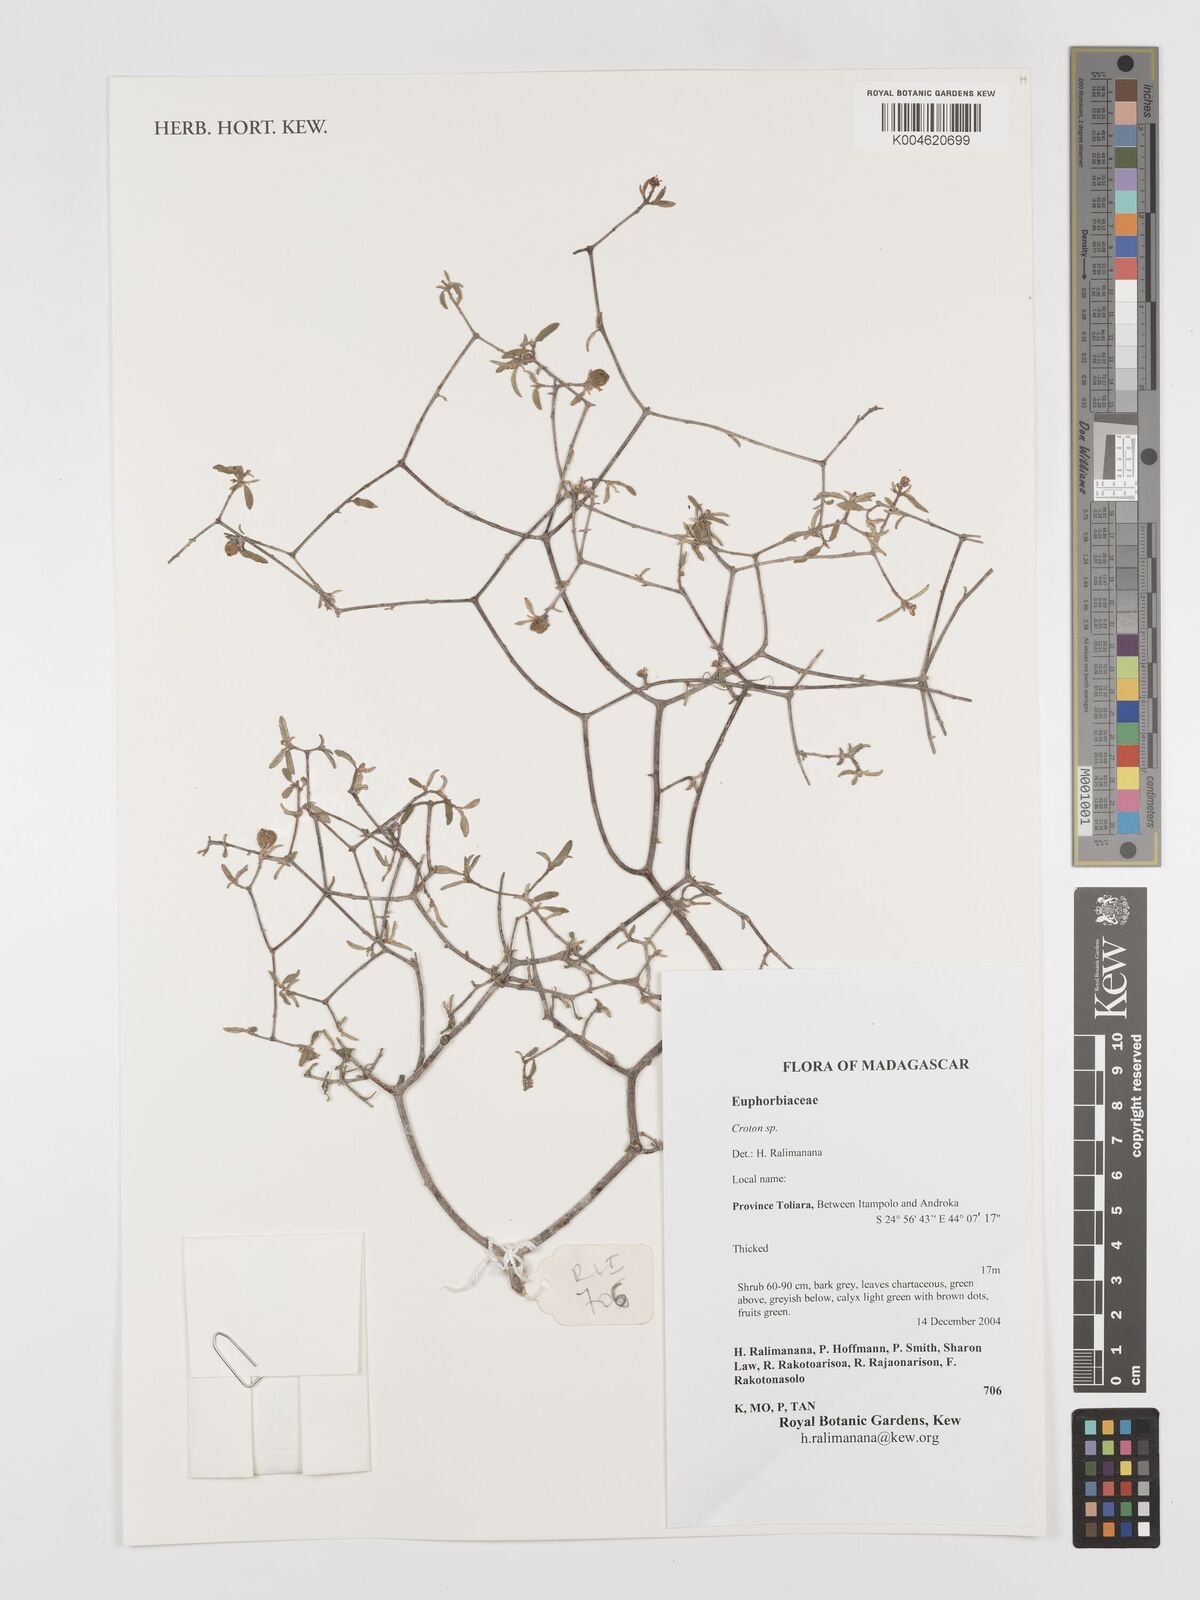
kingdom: Plantae
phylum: Tracheophyta
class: Magnoliopsida
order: Malpighiales
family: Euphorbiaceae
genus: Croton
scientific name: Croton
